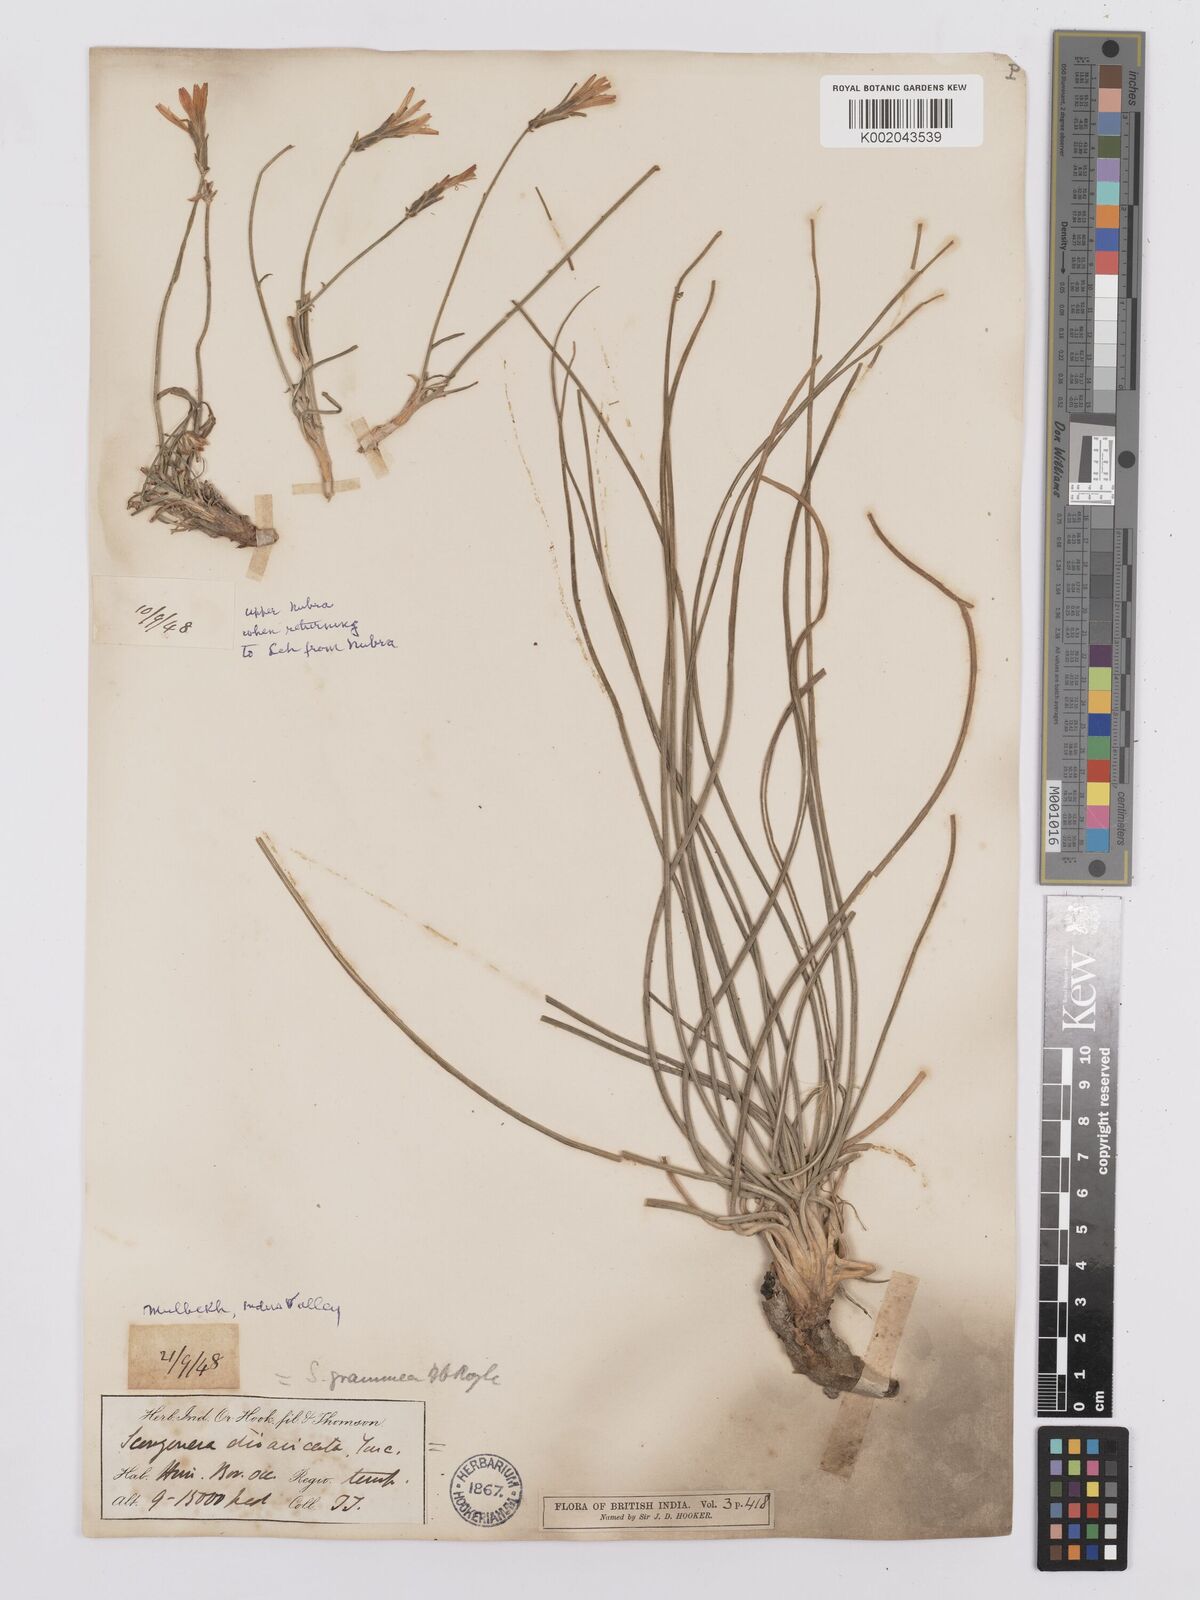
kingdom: Plantae
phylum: Tracheophyta
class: Magnoliopsida
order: Asterales
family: Asteraceae
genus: Scorzonera
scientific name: Scorzonera virgata
